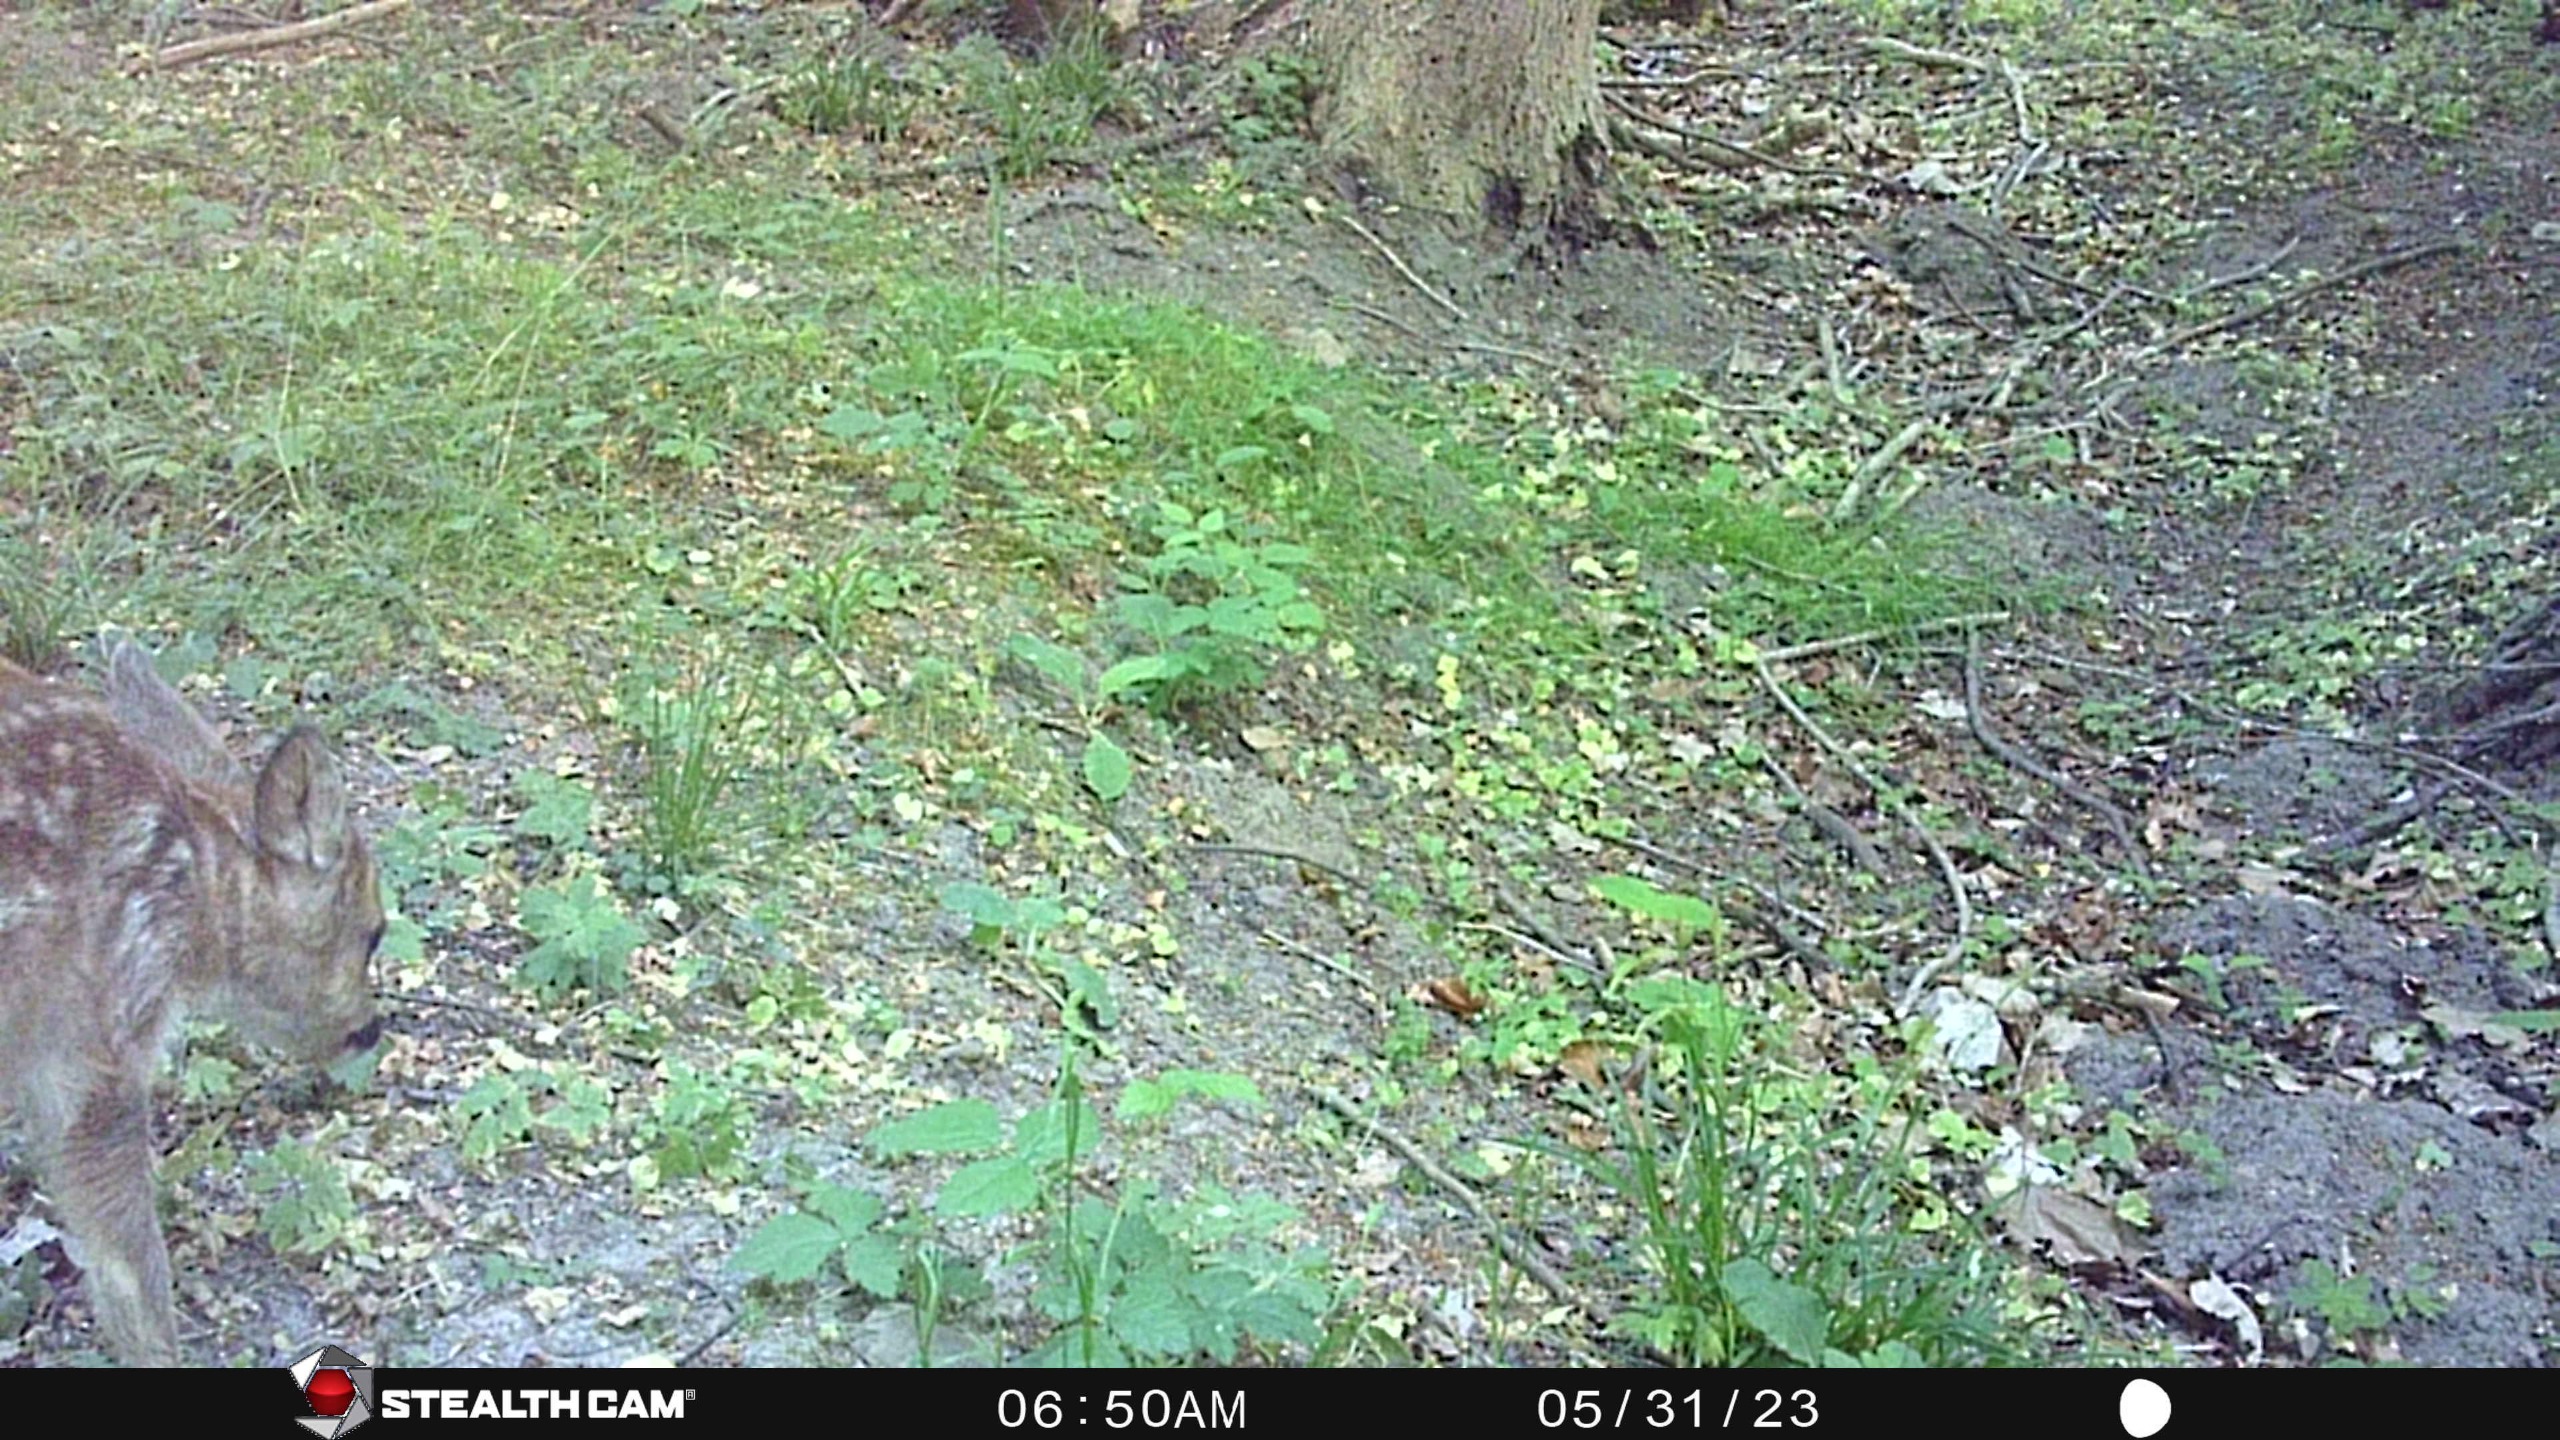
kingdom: Animalia
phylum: Chordata
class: Mammalia
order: Artiodactyla
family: Cervidae
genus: Capreolus
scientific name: Capreolus capreolus
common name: Rådyr
